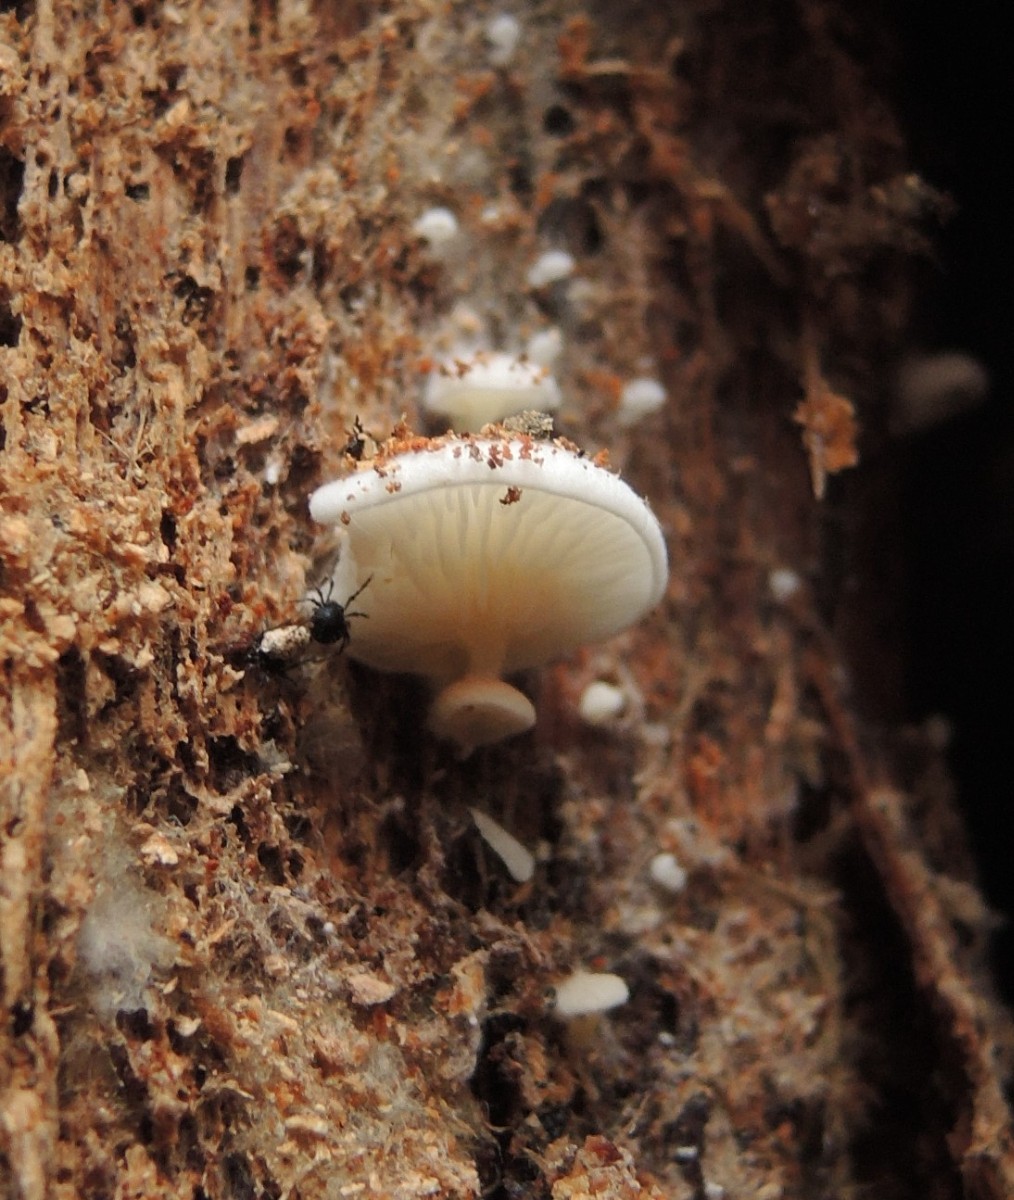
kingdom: Fungi
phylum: Basidiomycota
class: Agaricomycetes
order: Agaricales
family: Entolomataceae
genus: Clitopilus
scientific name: Clitopilus hobsonii
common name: Miller's oysterling
